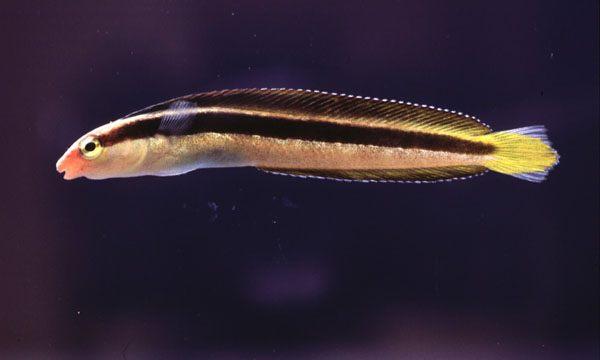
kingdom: Animalia
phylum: Chordata
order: Perciformes
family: Blenniidae
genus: Aspidontus
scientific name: Aspidontus dussumieri
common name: Lance blenny
